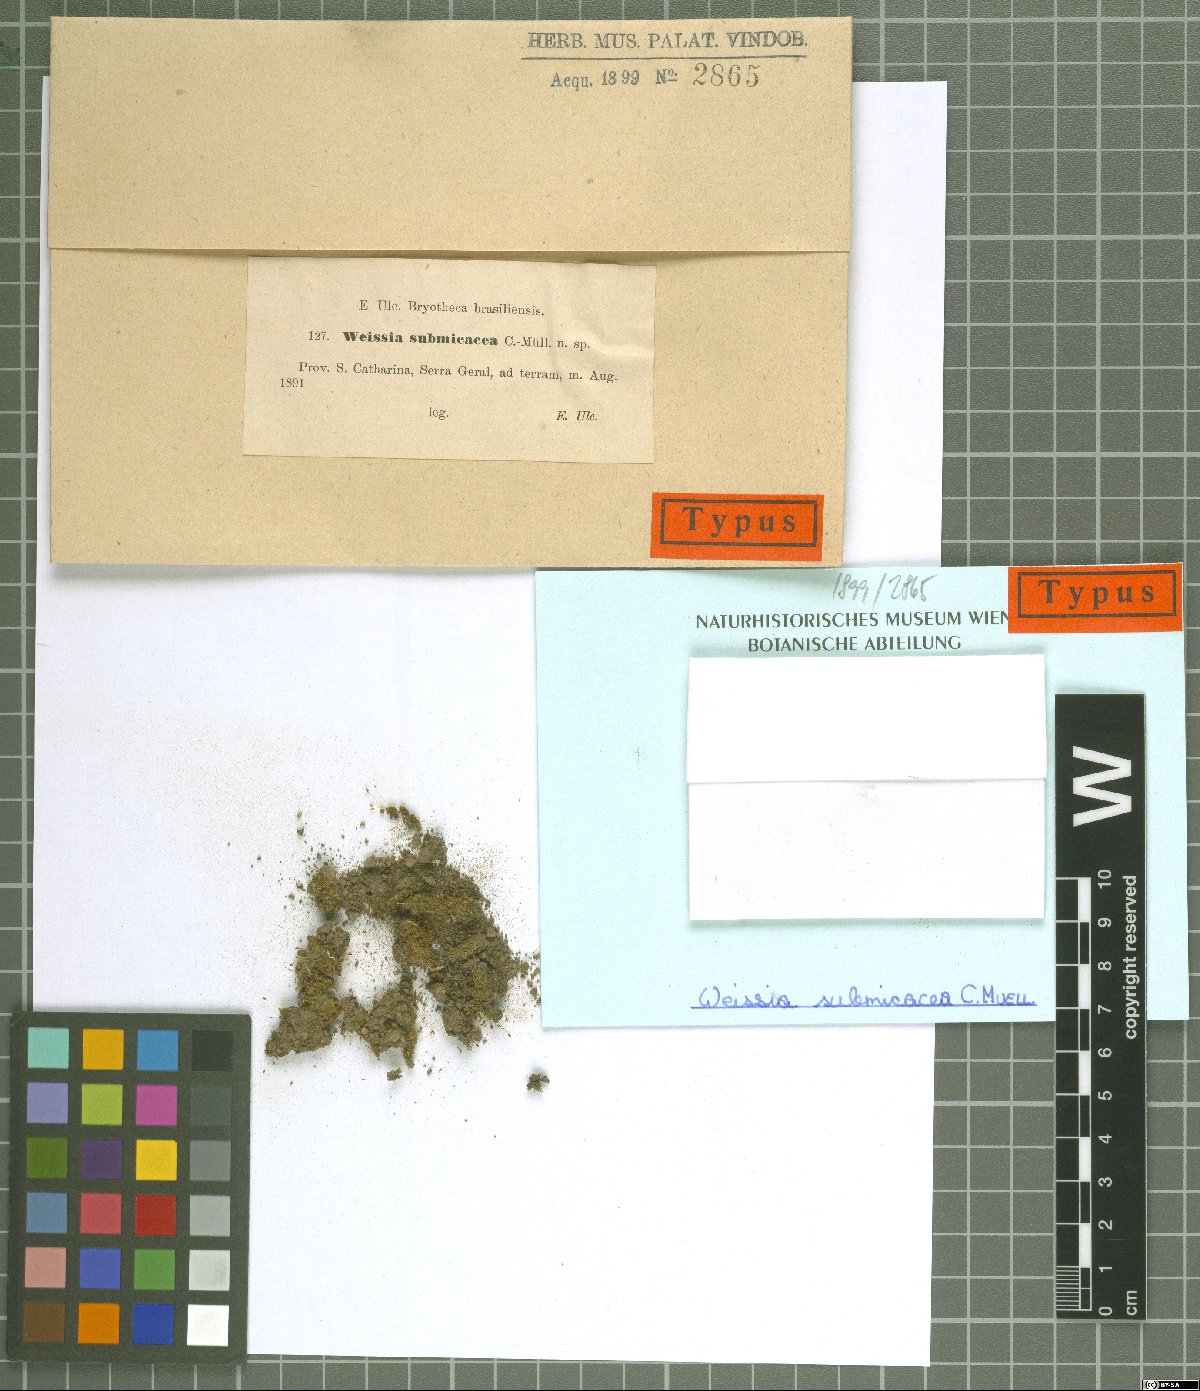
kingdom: Plantae
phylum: Bryophyta
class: Bryopsida
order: Pottiales
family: Pottiaceae
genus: Weissia
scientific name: Weissia controversa
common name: Green-tufted stubble moss
